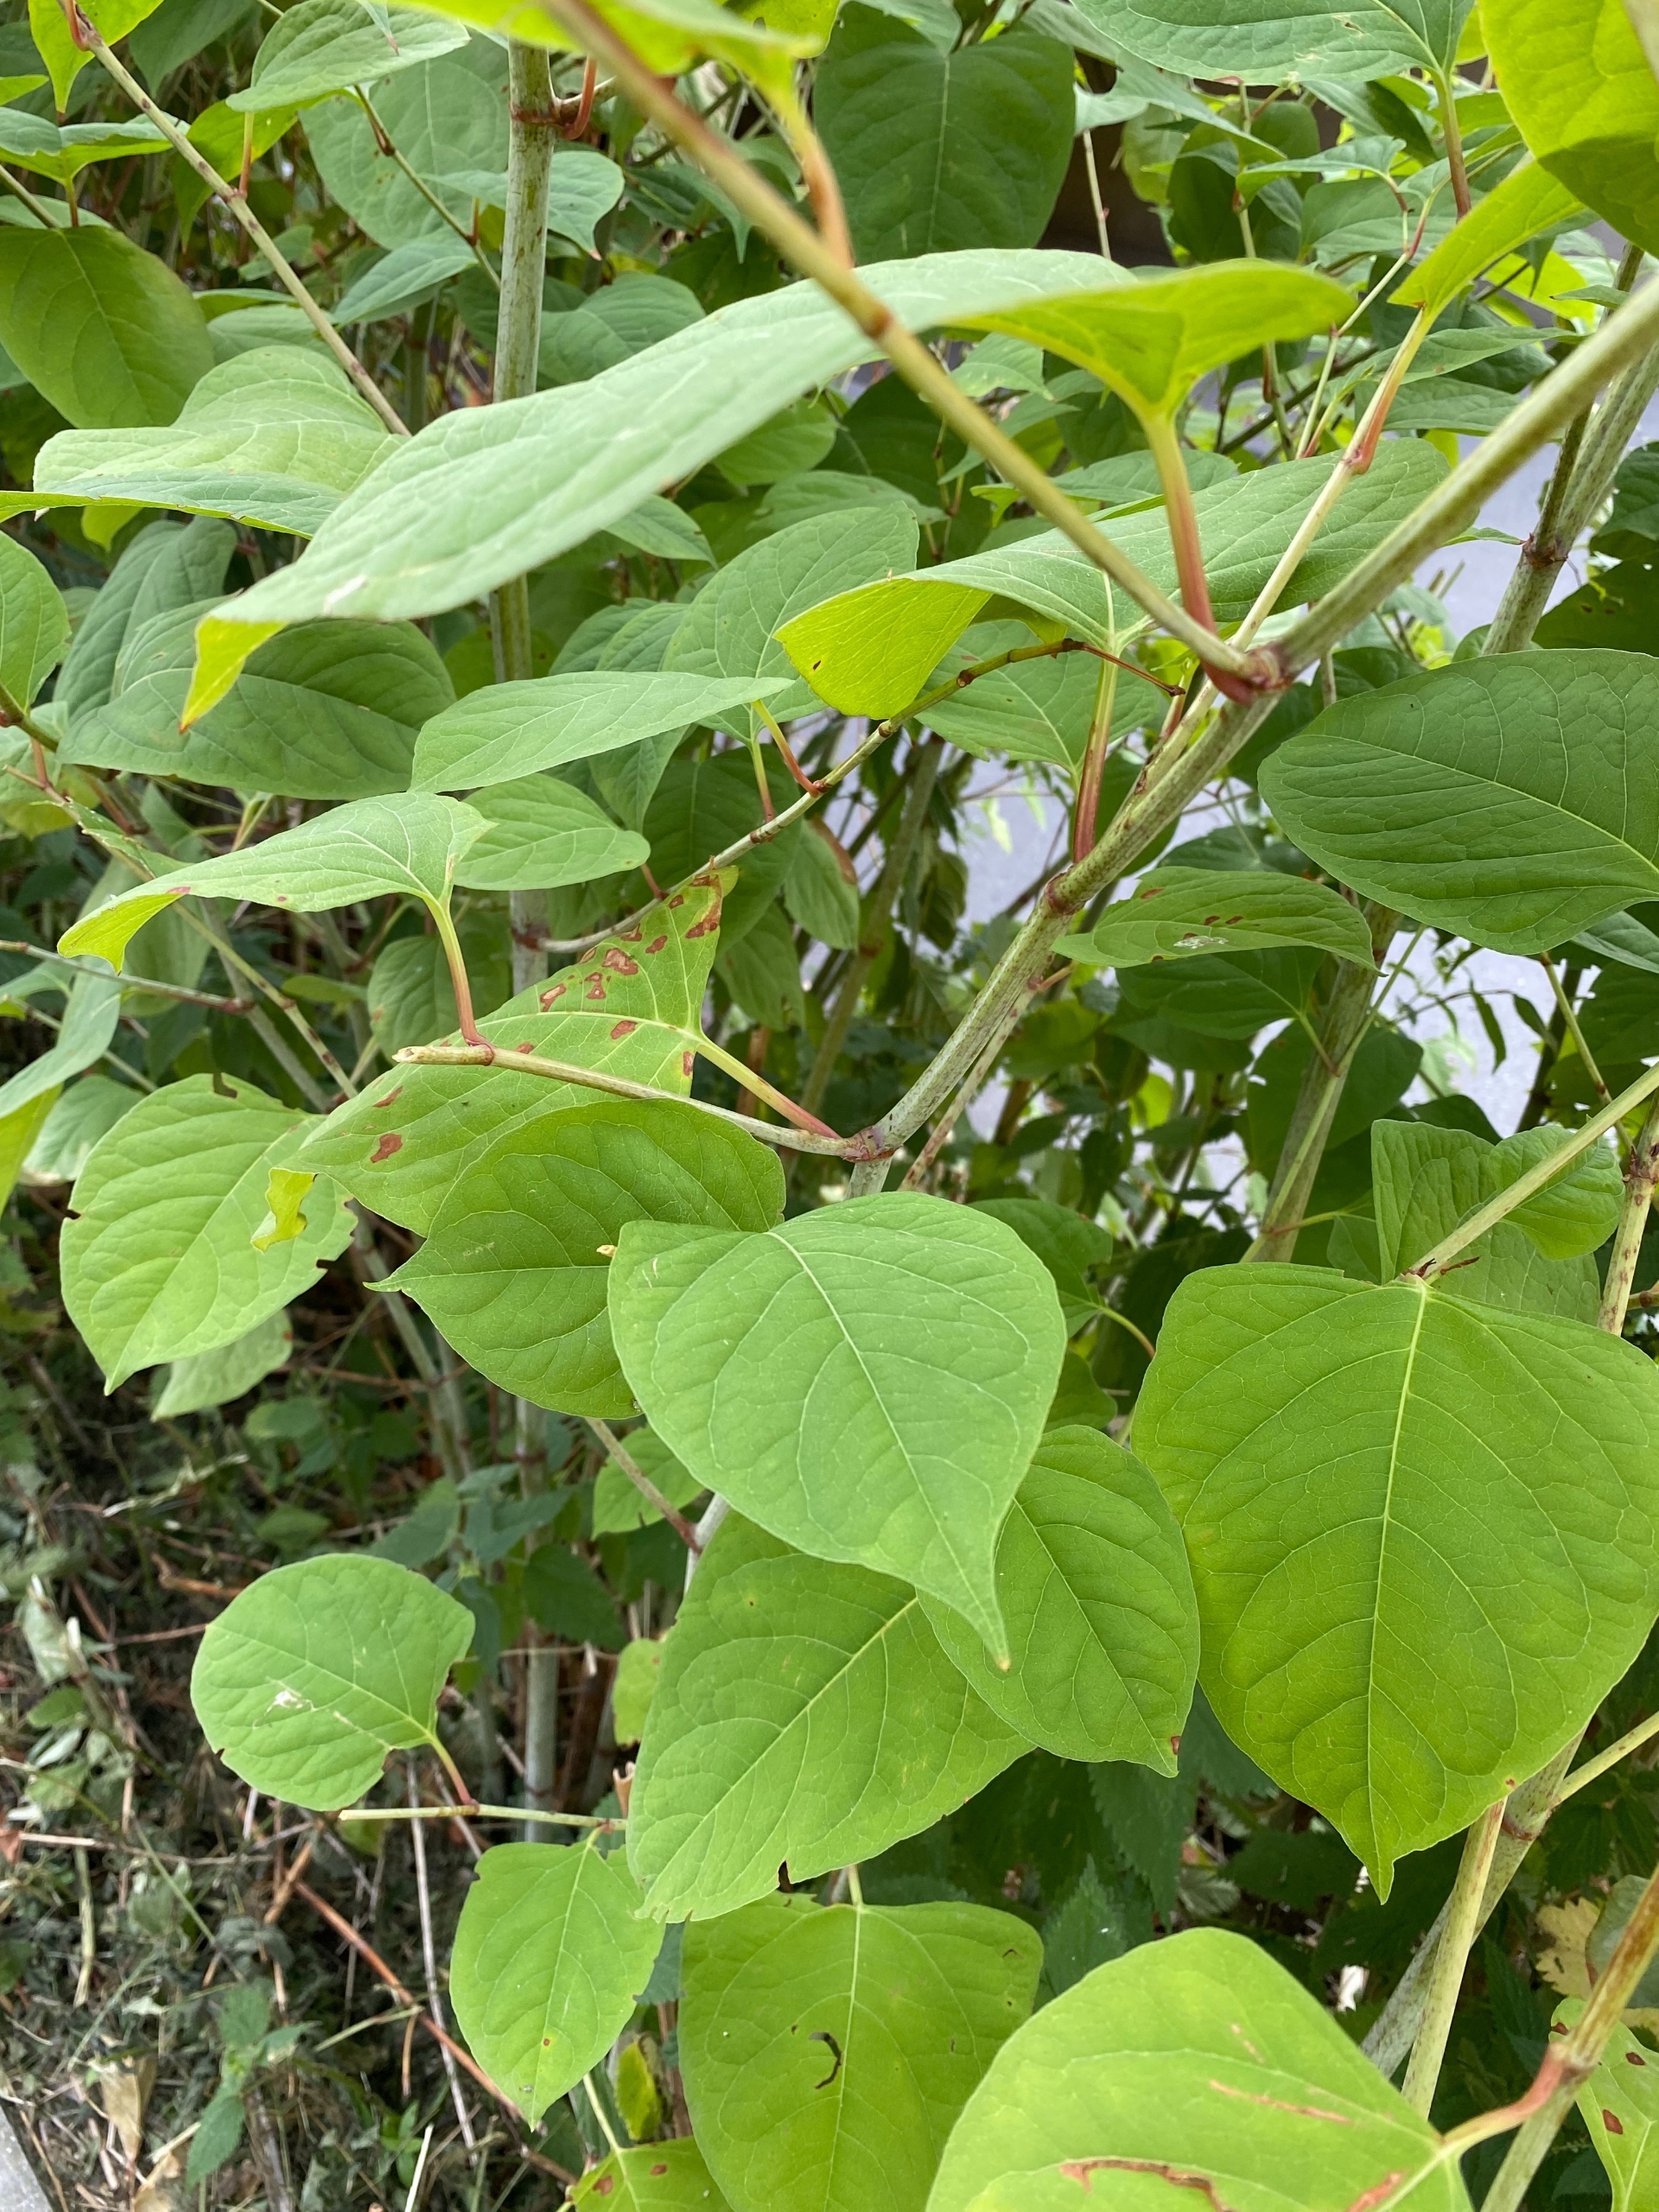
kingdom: Plantae
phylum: Tracheophyta
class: Magnoliopsida
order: Caryophyllales
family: Polygonaceae
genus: Reynoutria
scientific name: Reynoutria japonica
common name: Japan-pileurt
